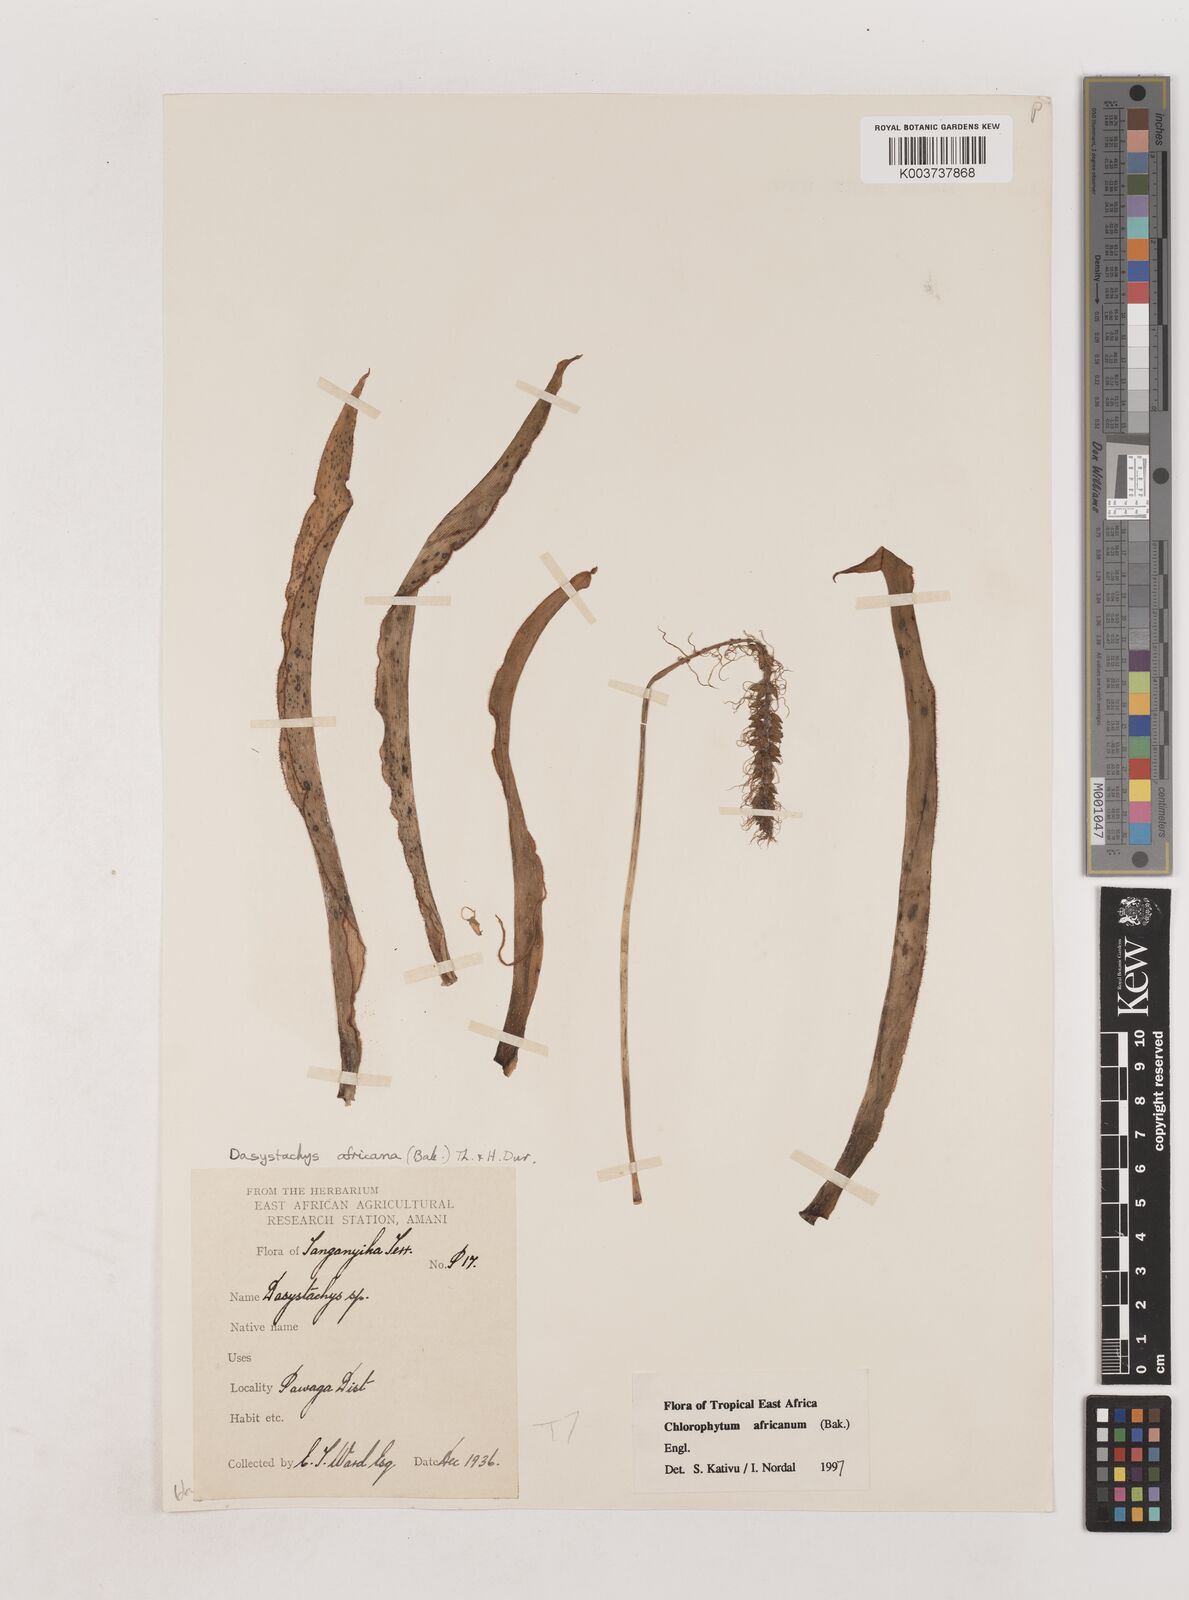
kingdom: Plantae
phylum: Tracheophyta
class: Liliopsida
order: Asparagales
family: Asparagaceae
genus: Chlorophytum
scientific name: Chlorophytum africanum
